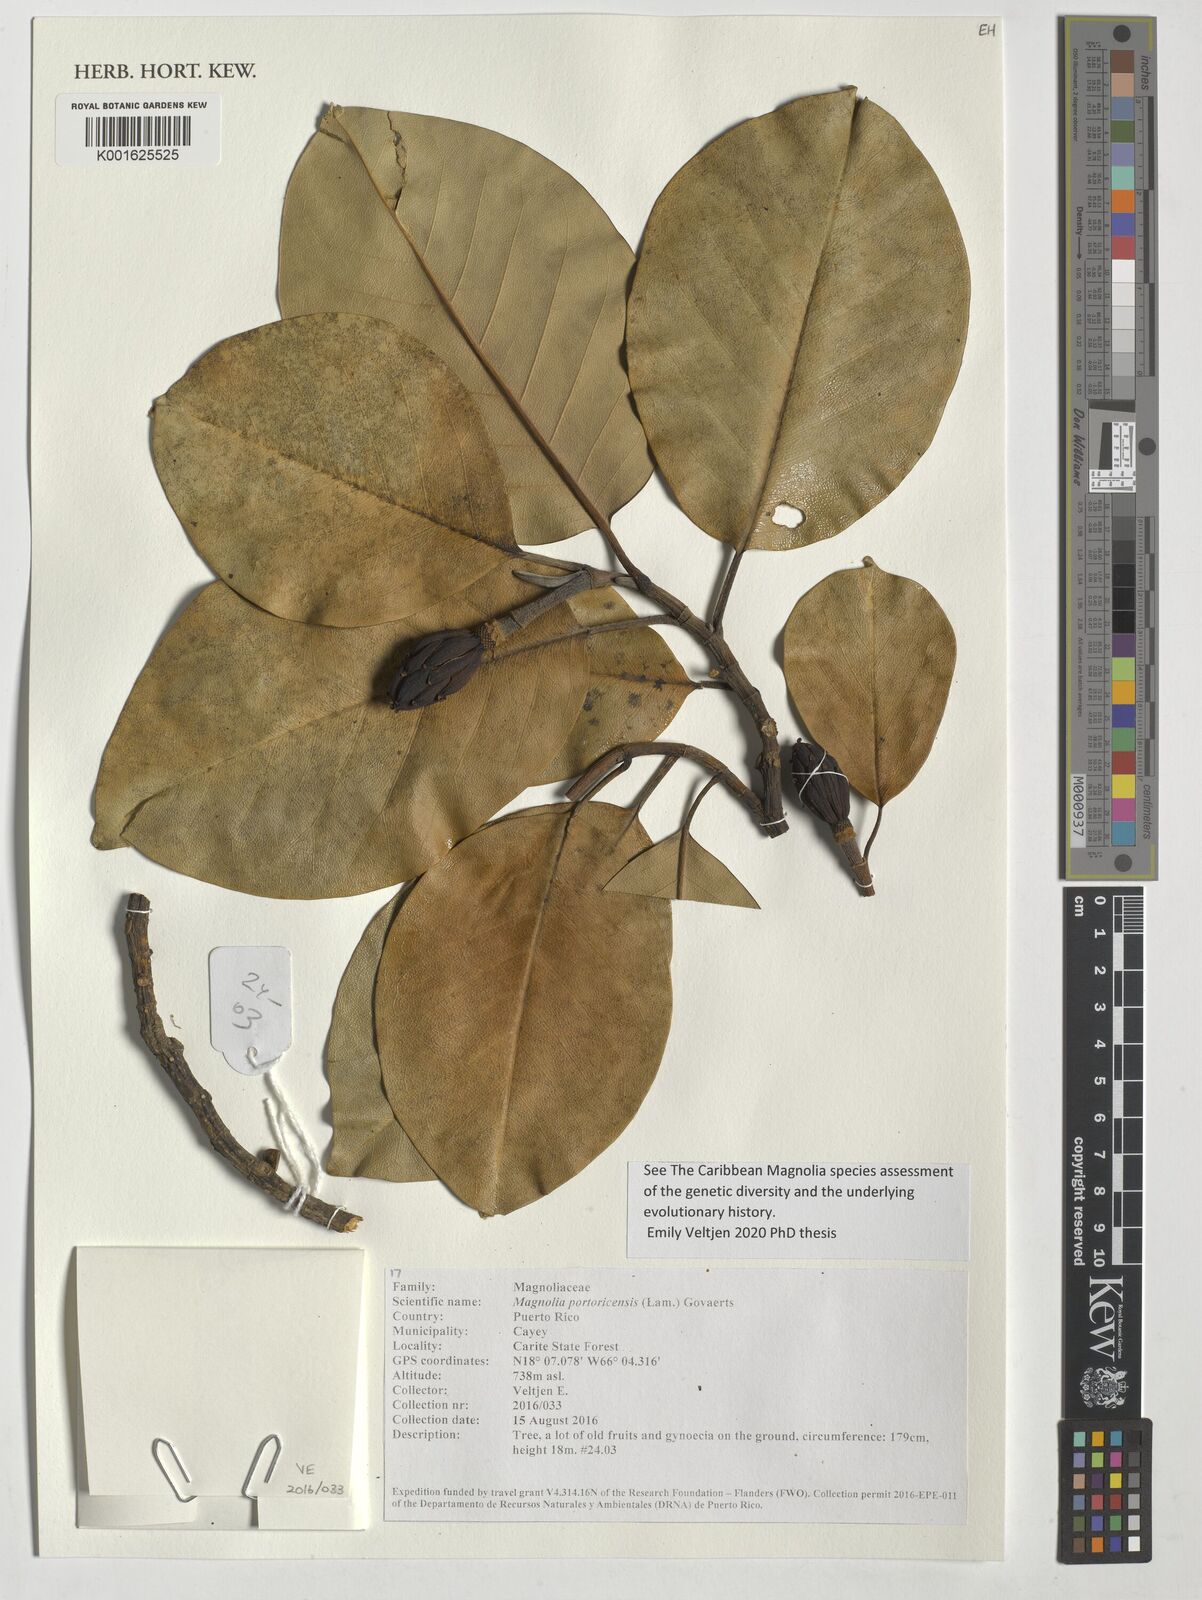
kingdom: Plantae
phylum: Tracheophyta
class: Magnoliopsida
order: Magnoliales
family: Magnoliaceae
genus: Magnolia
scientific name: Magnolia portoricensis
